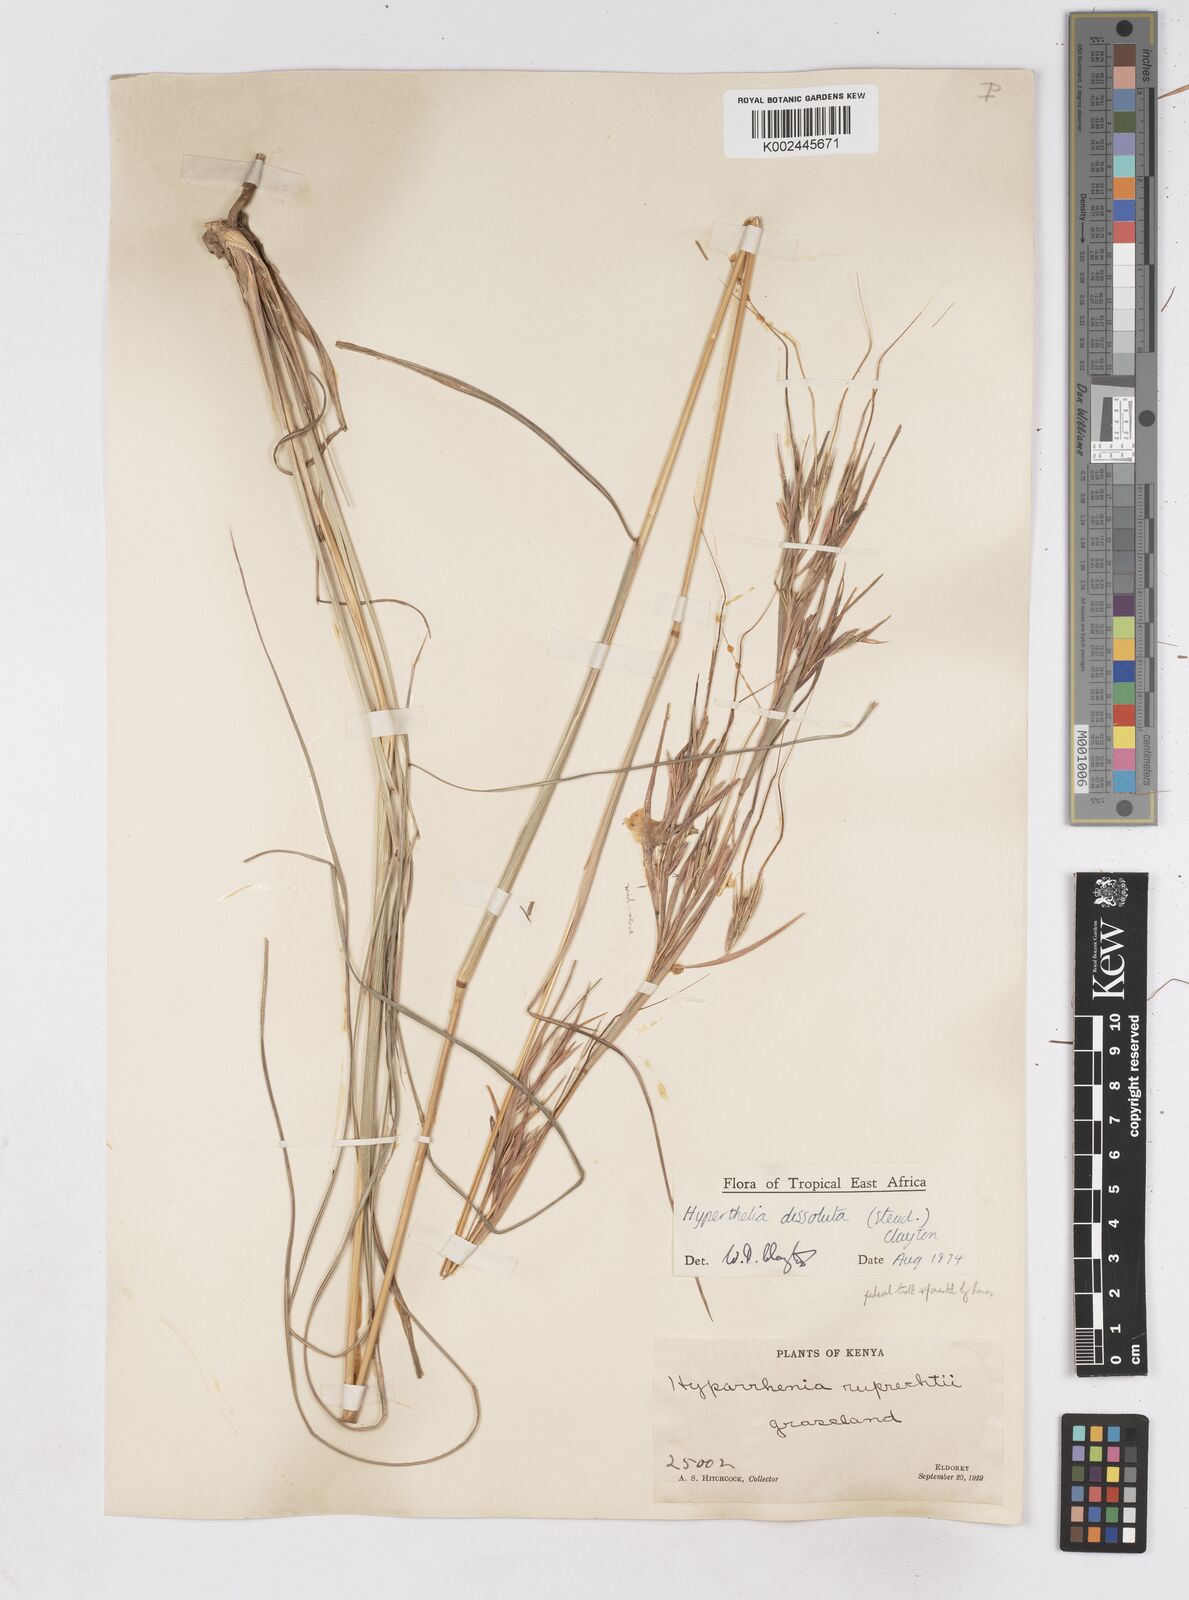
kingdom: Plantae
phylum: Tracheophyta
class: Liliopsida
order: Poales
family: Poaceae
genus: Hyperthelia
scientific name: Hyperthelia dissoluta
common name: Yellow thatching grass
